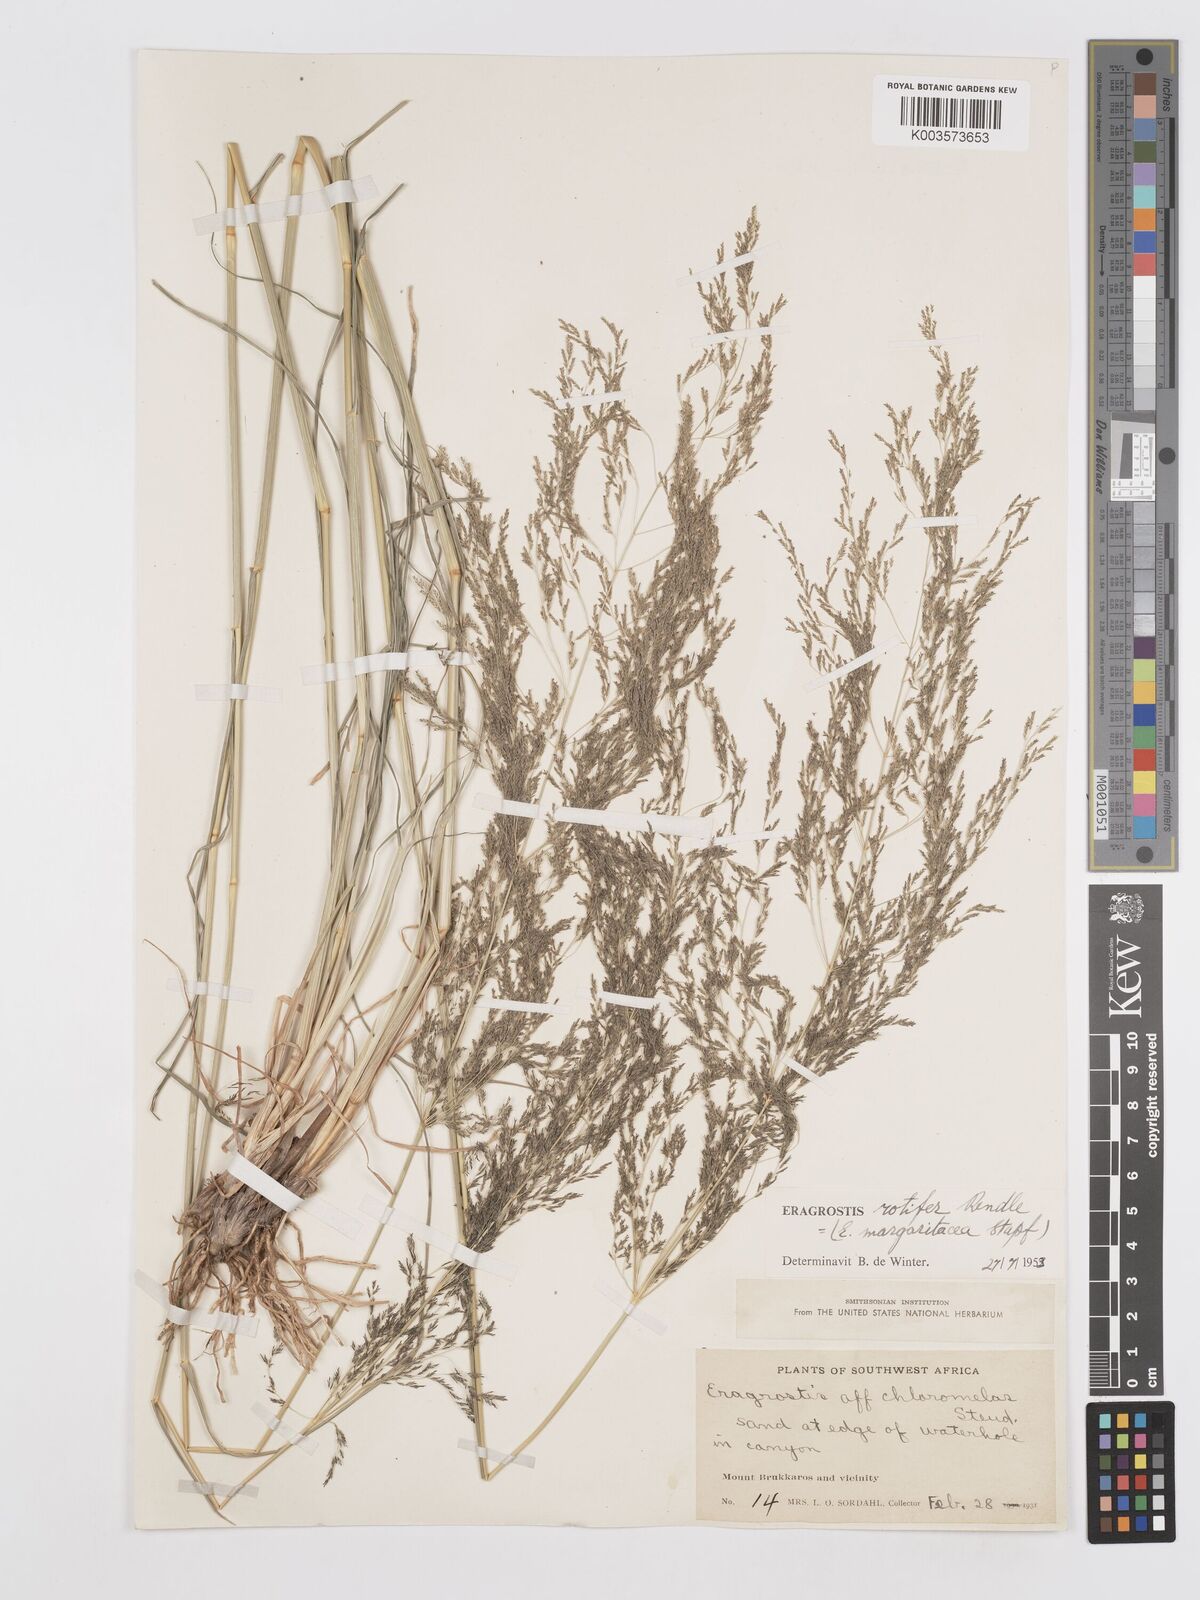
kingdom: Plantae
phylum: Tracheophyta
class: Liliopsida
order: Poales
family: Poaceae
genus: Eragrostis
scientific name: Eragrostis rotifer
